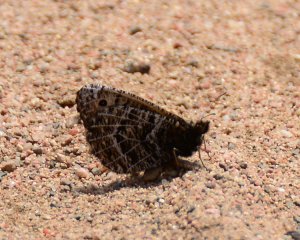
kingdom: Animalia
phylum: Arthropoda
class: Insecta
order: Lepidoptera
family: Nymphalidae
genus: Oeneis
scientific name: Oeneis chryxus
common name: Chryxus Arctic
